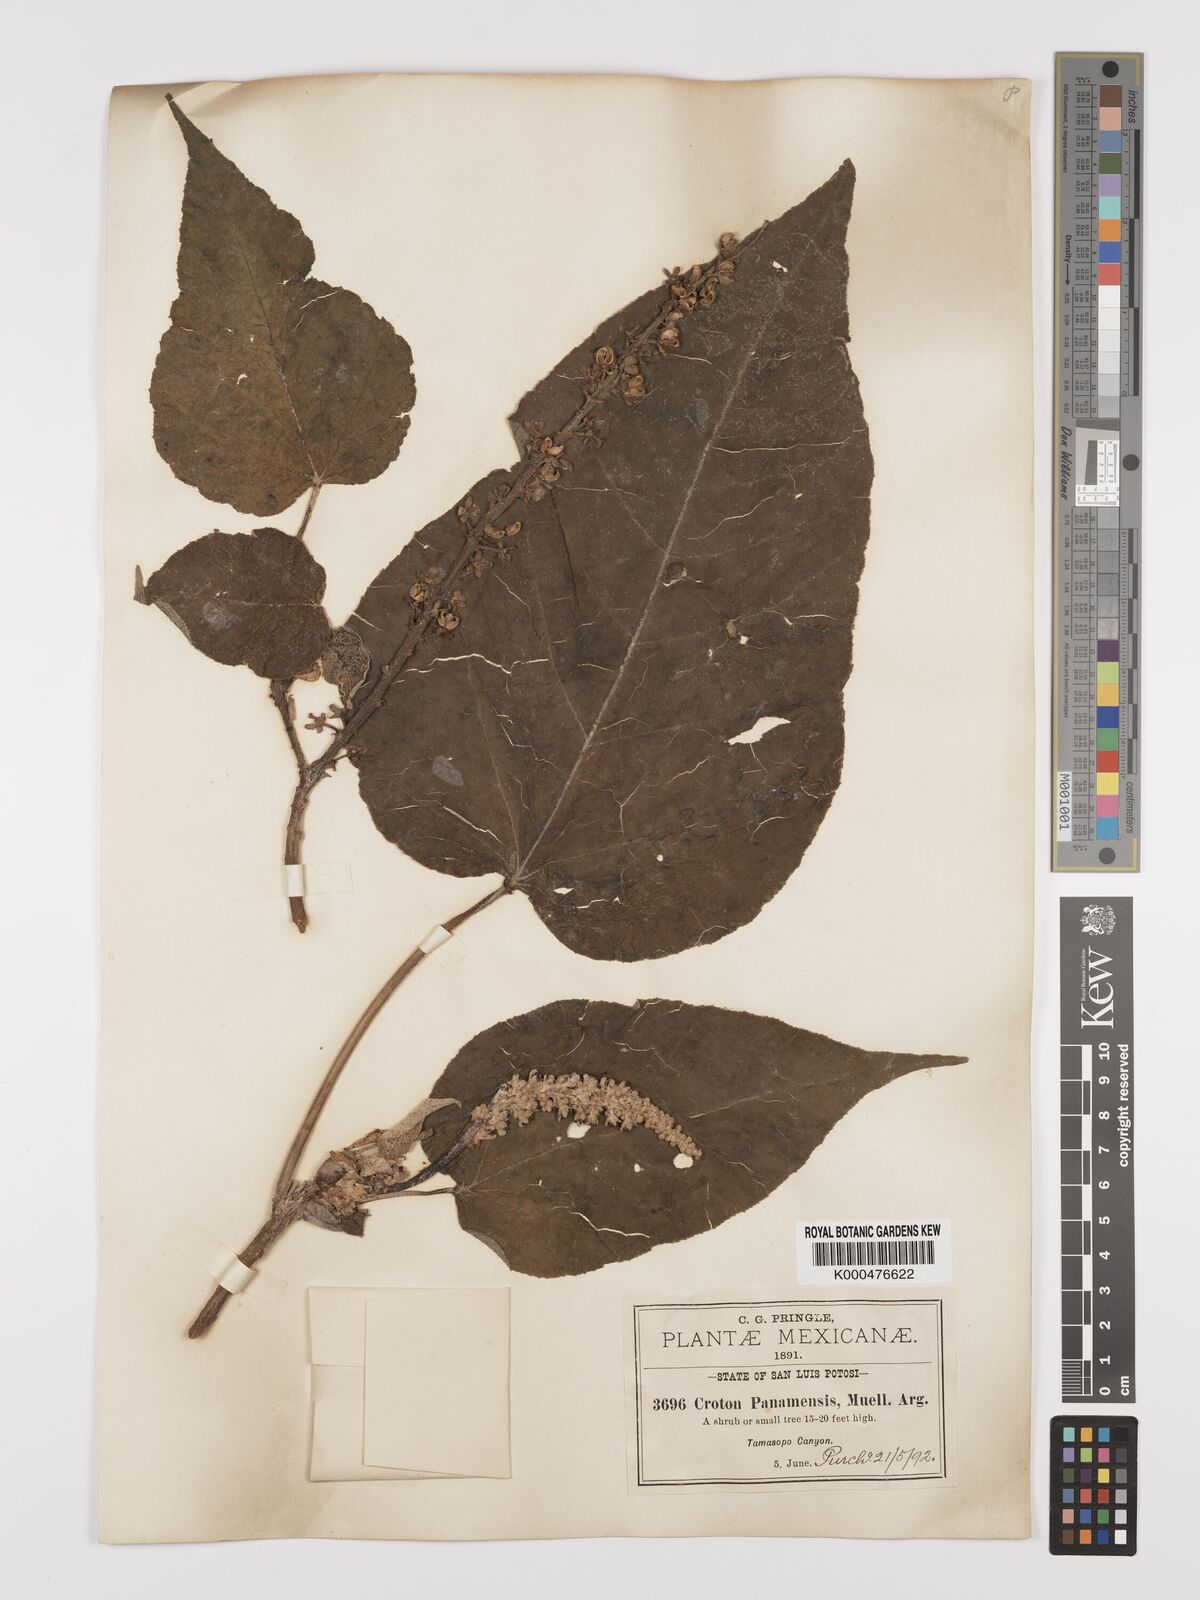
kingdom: Plantae
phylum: Tracheophyta
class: Magnoliopsida
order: Malpighiales
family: Euphorbiaceae
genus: Croton
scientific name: Croton draco
